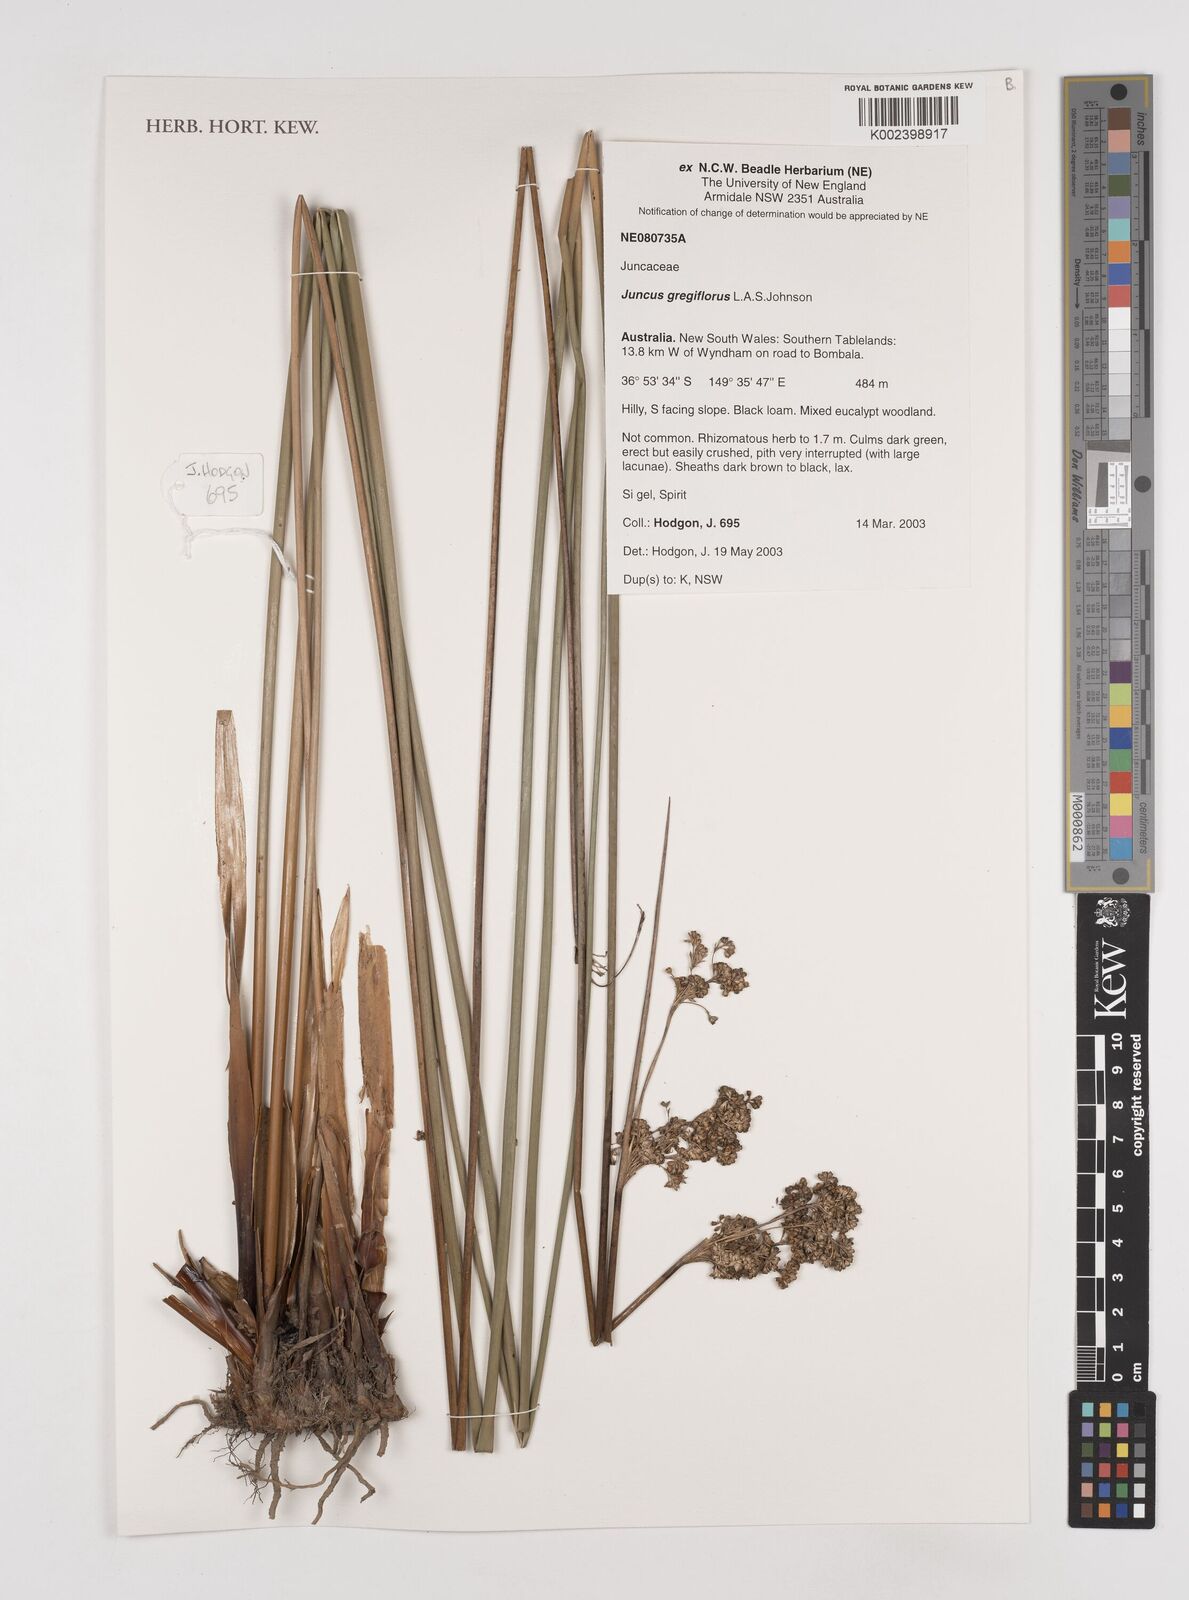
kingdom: Plantae
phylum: Tracheophyta
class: Liliopsida
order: Poales
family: Juncaceae
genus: Juncus
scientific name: Juncus gregiflorus
